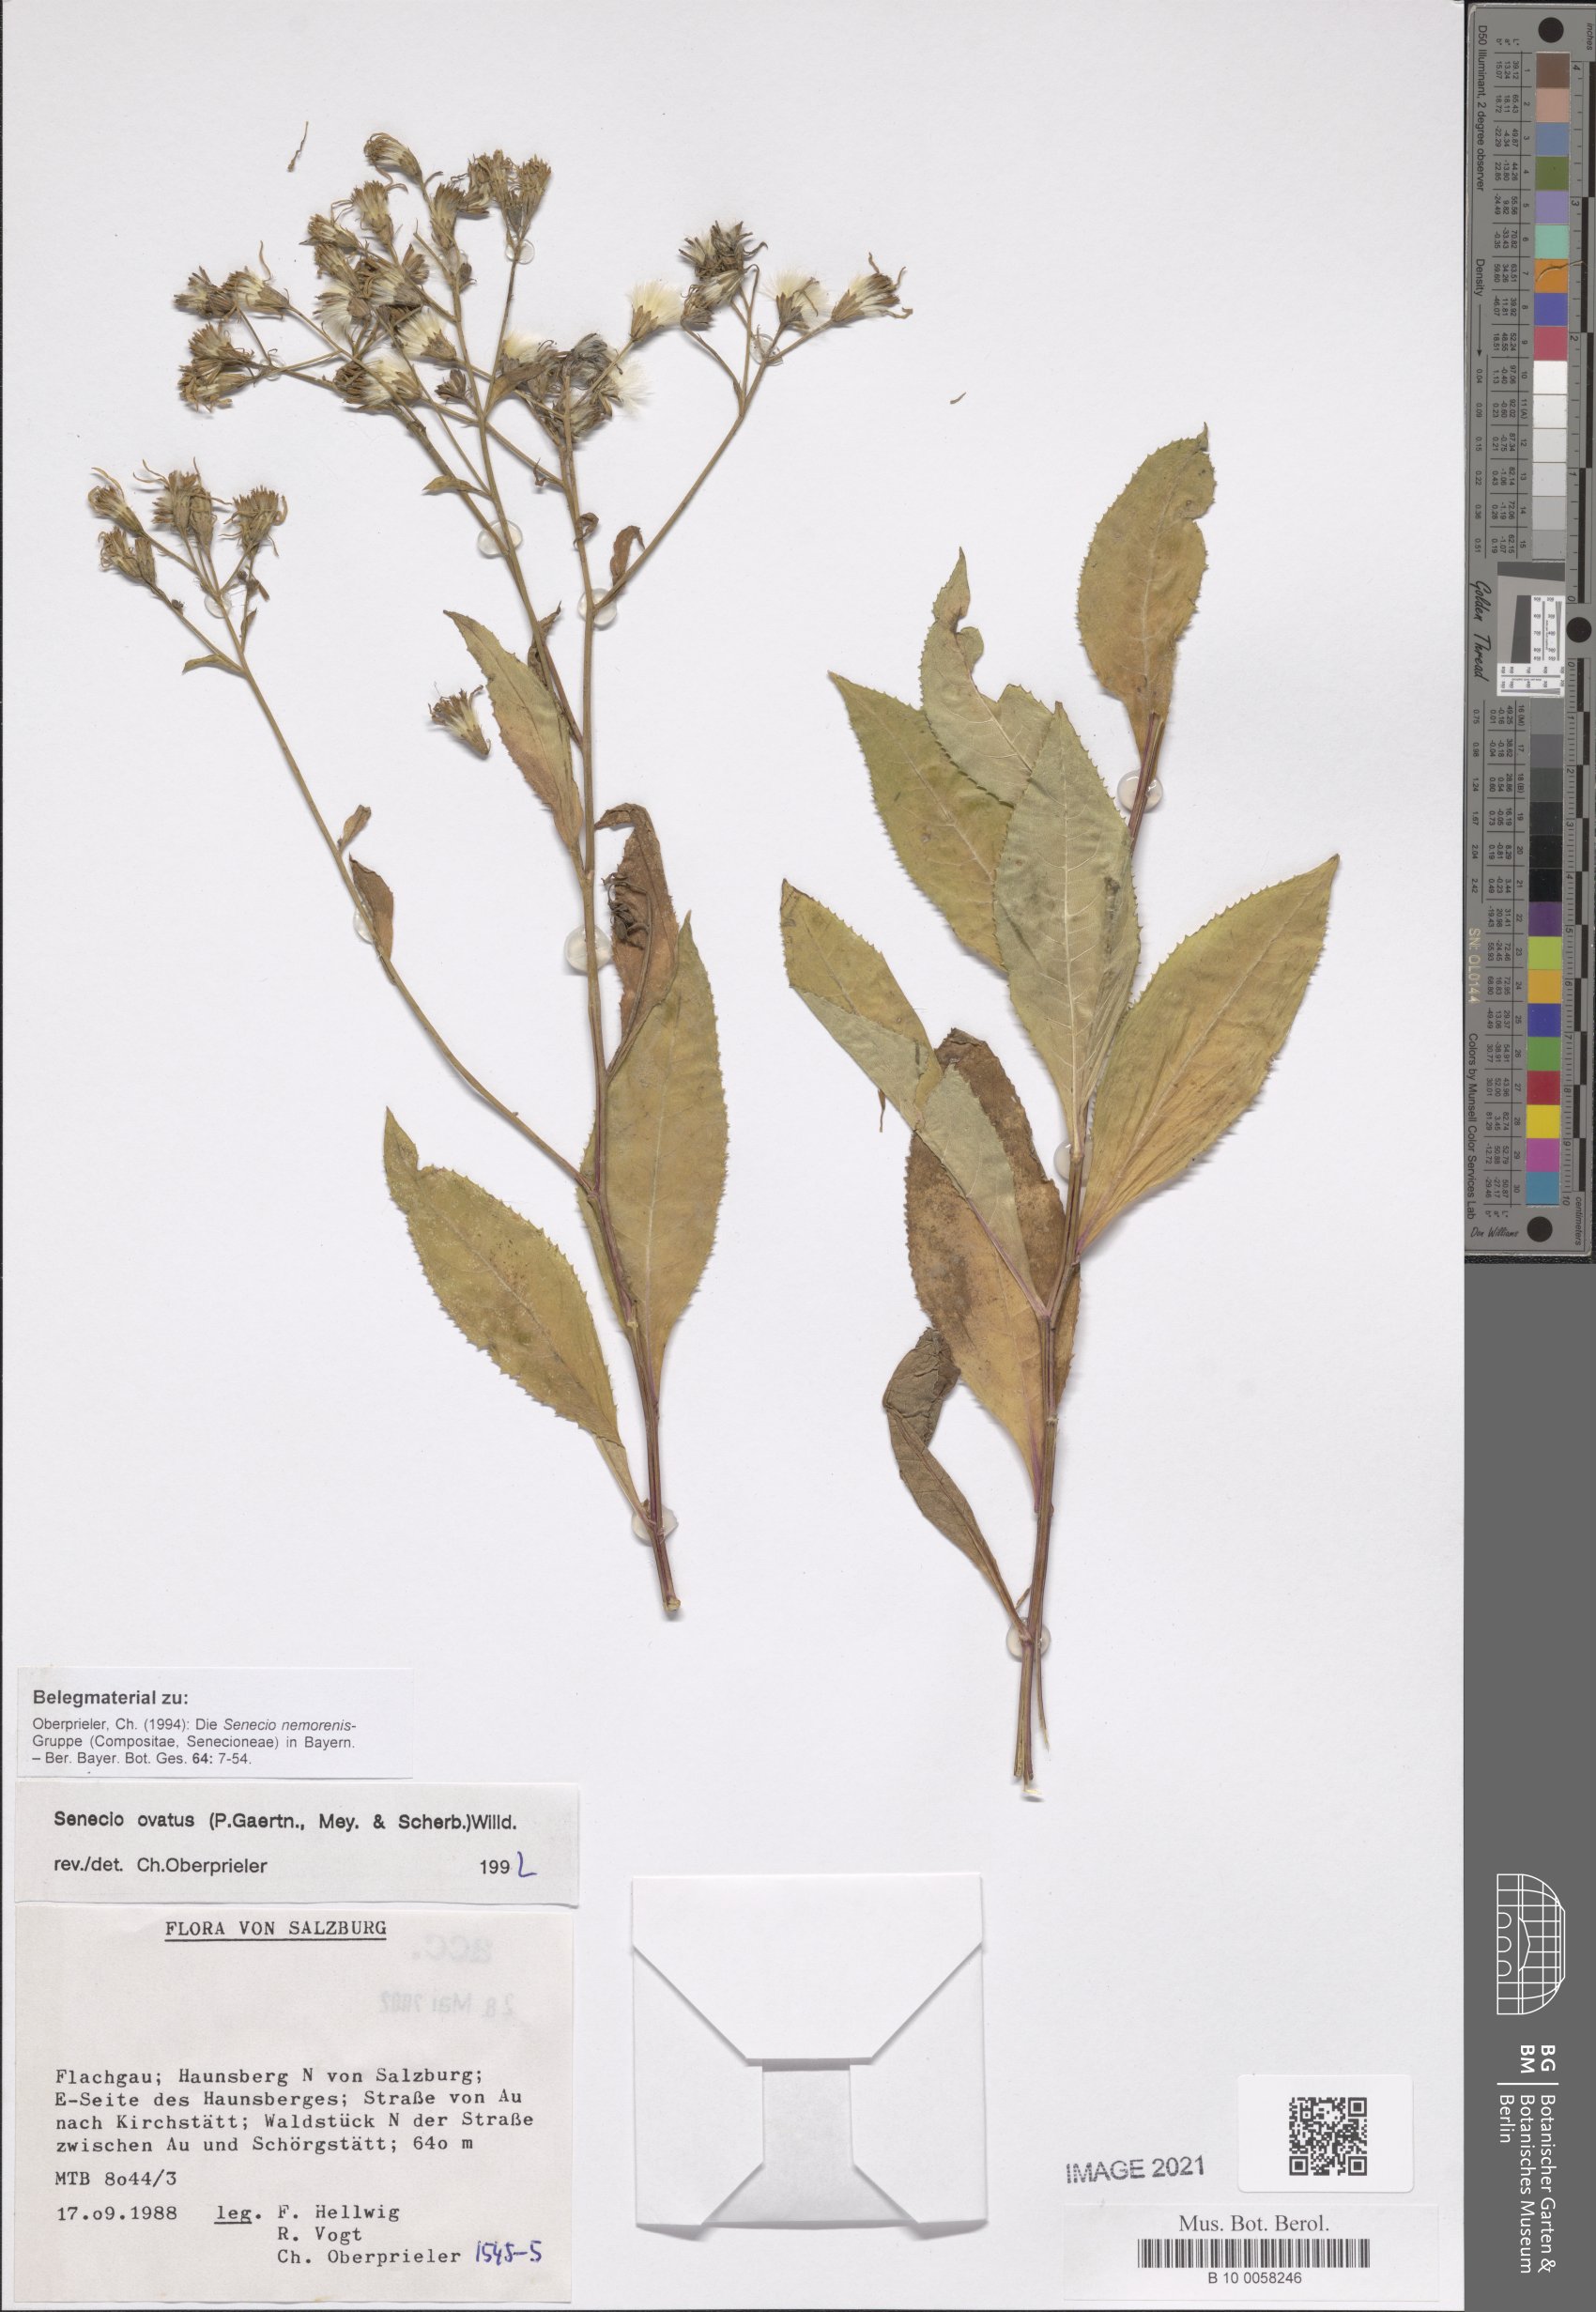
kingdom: Plantae
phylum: Tracheophyta
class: Magnoliopsida
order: Asterales
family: Asteraceae
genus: Senecio
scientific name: Senecio ovatus
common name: Wood ragwort
